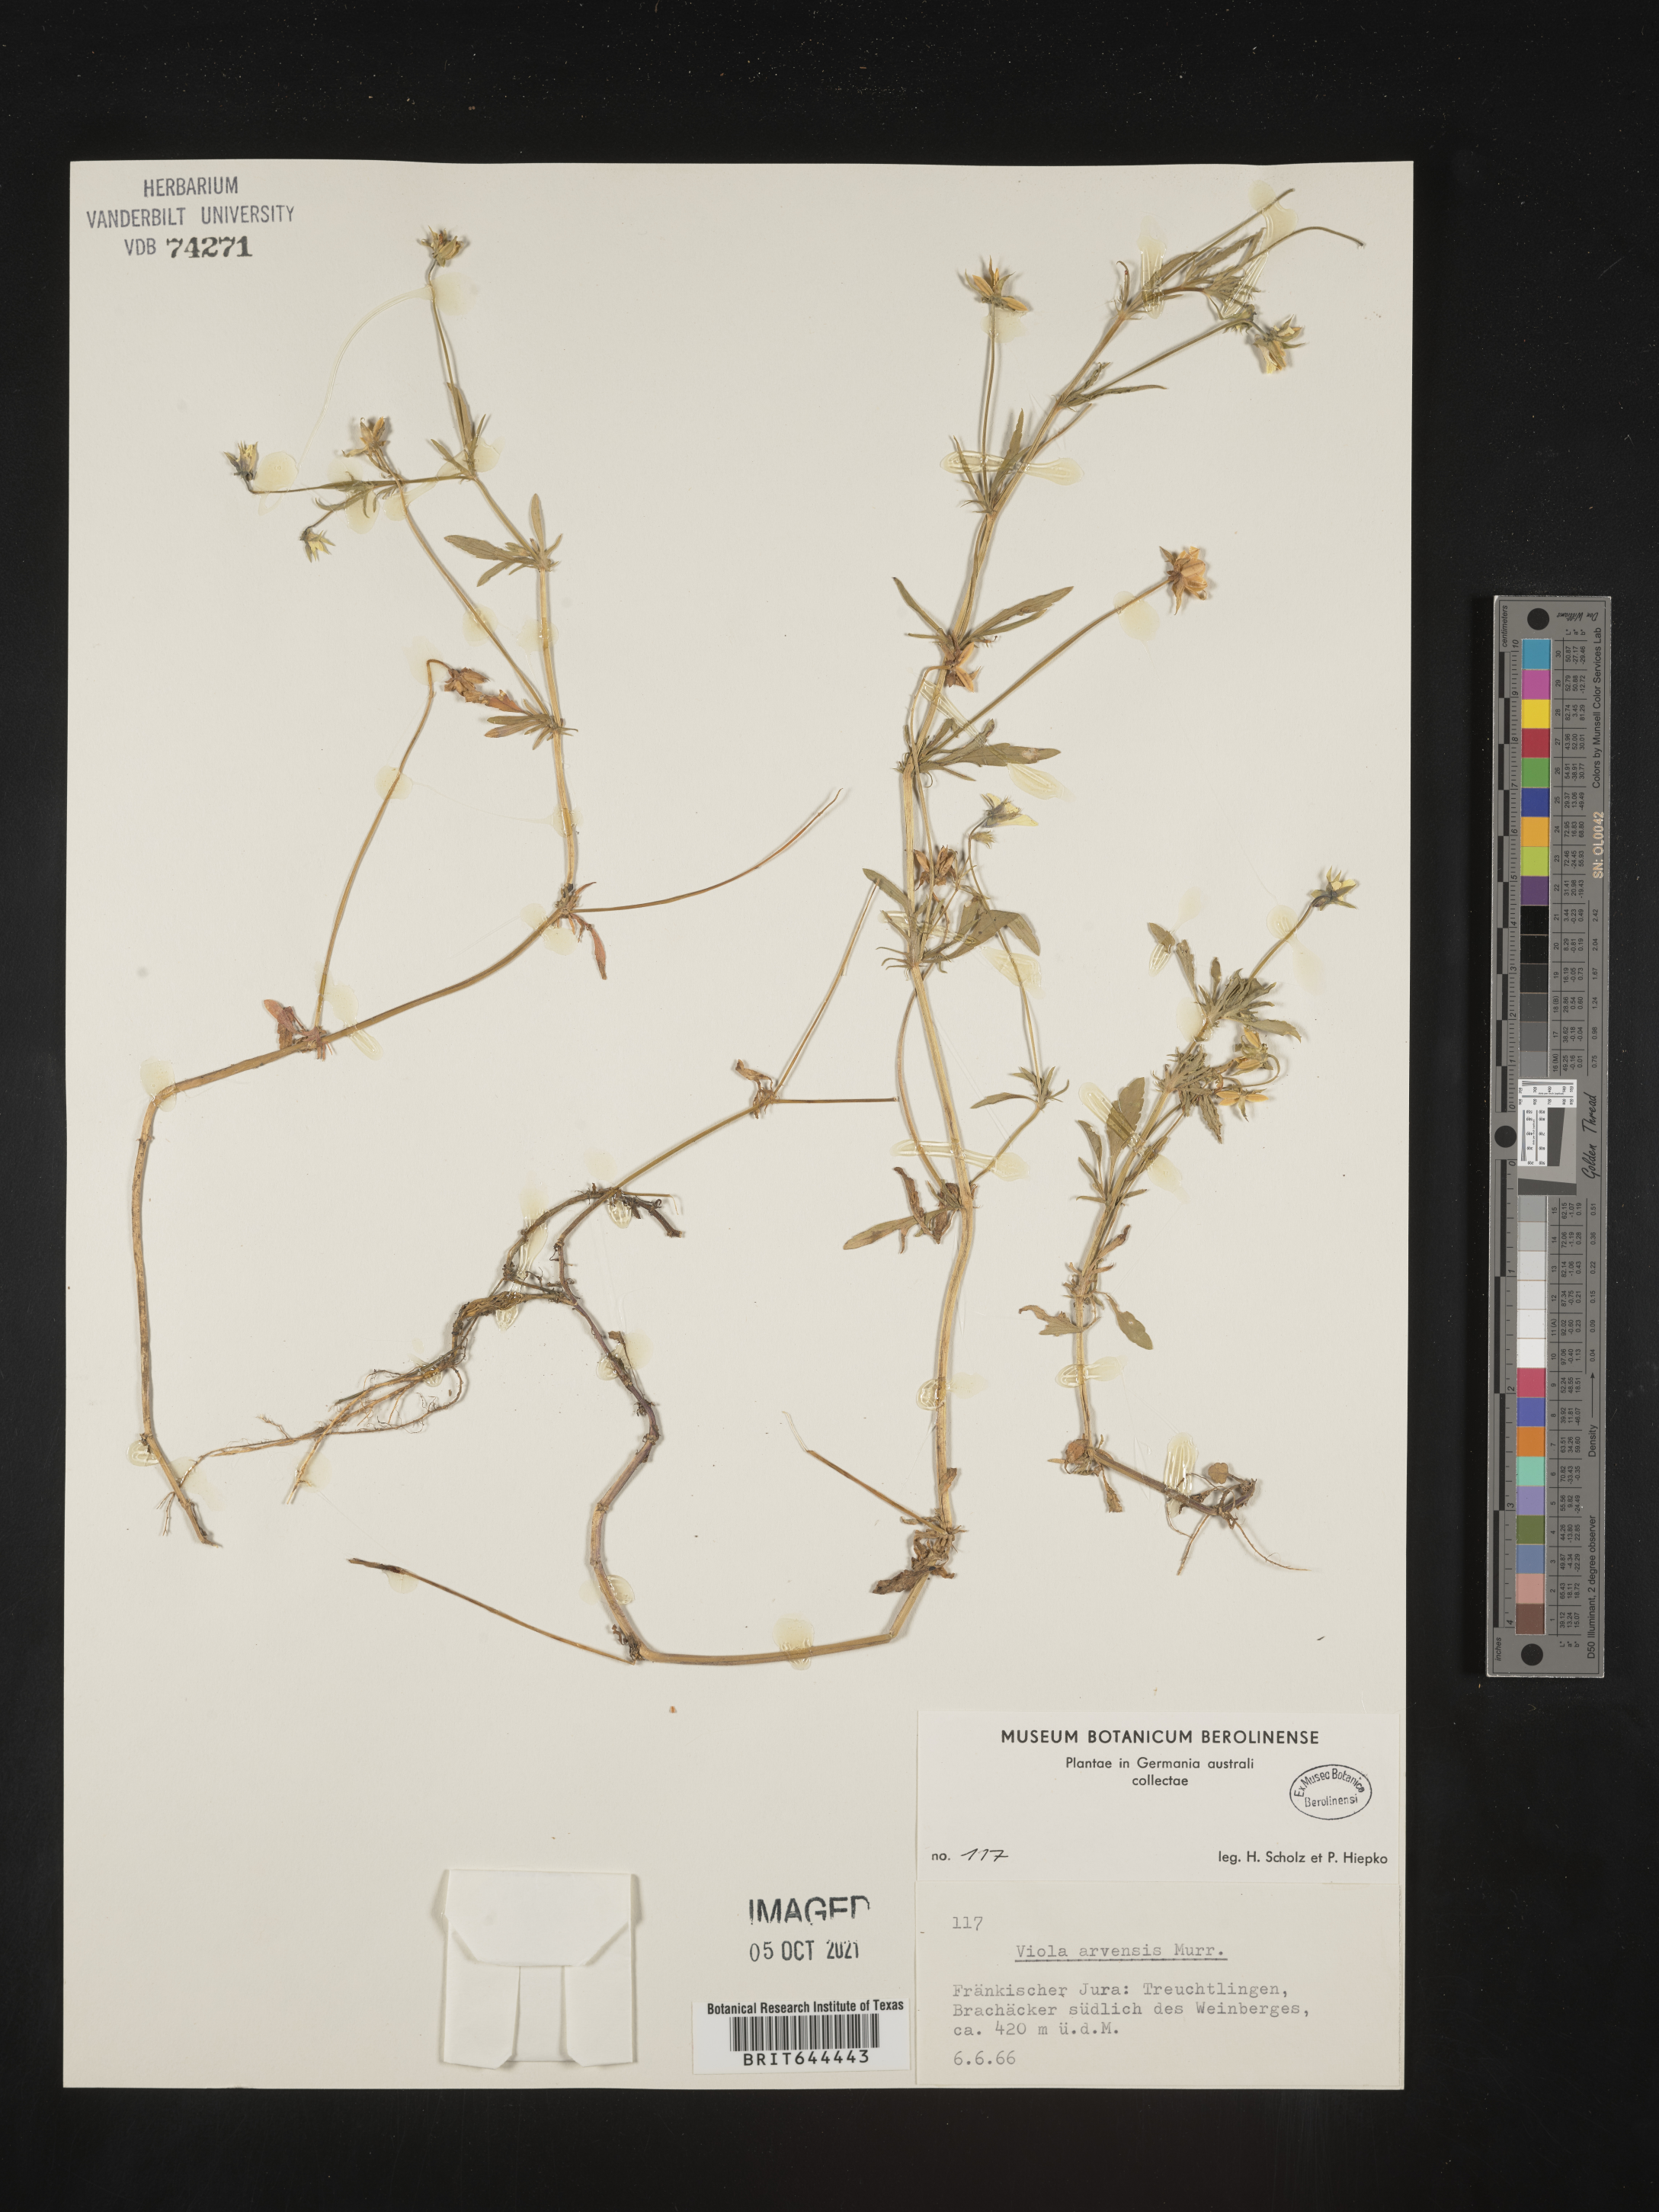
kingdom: Plantae
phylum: Tracheophyta
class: Magnoliopsida
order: Malpighiales
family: Violaceae
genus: Viola
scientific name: Viola
